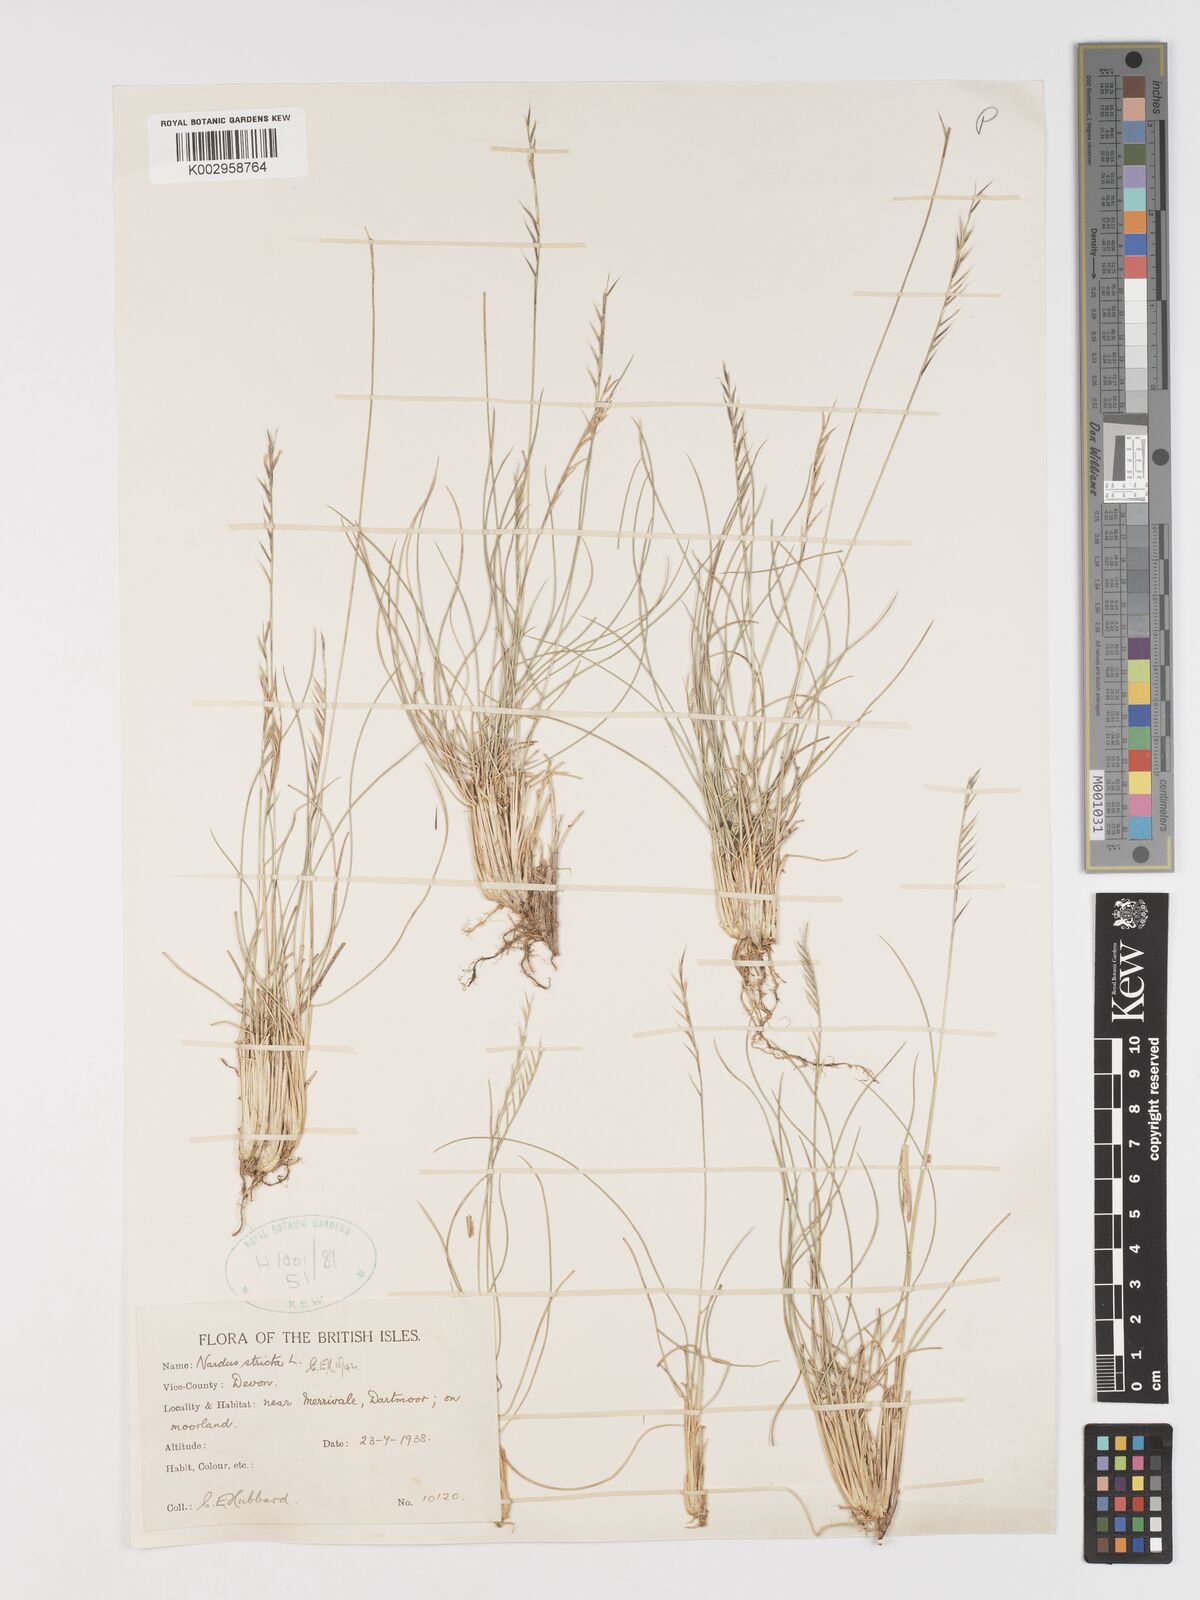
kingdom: Plantae
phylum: Tracheophyta
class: Liliopsida
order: Poales
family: Poaceae
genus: Nardus
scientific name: Nardus stricta
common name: Mat-grass
